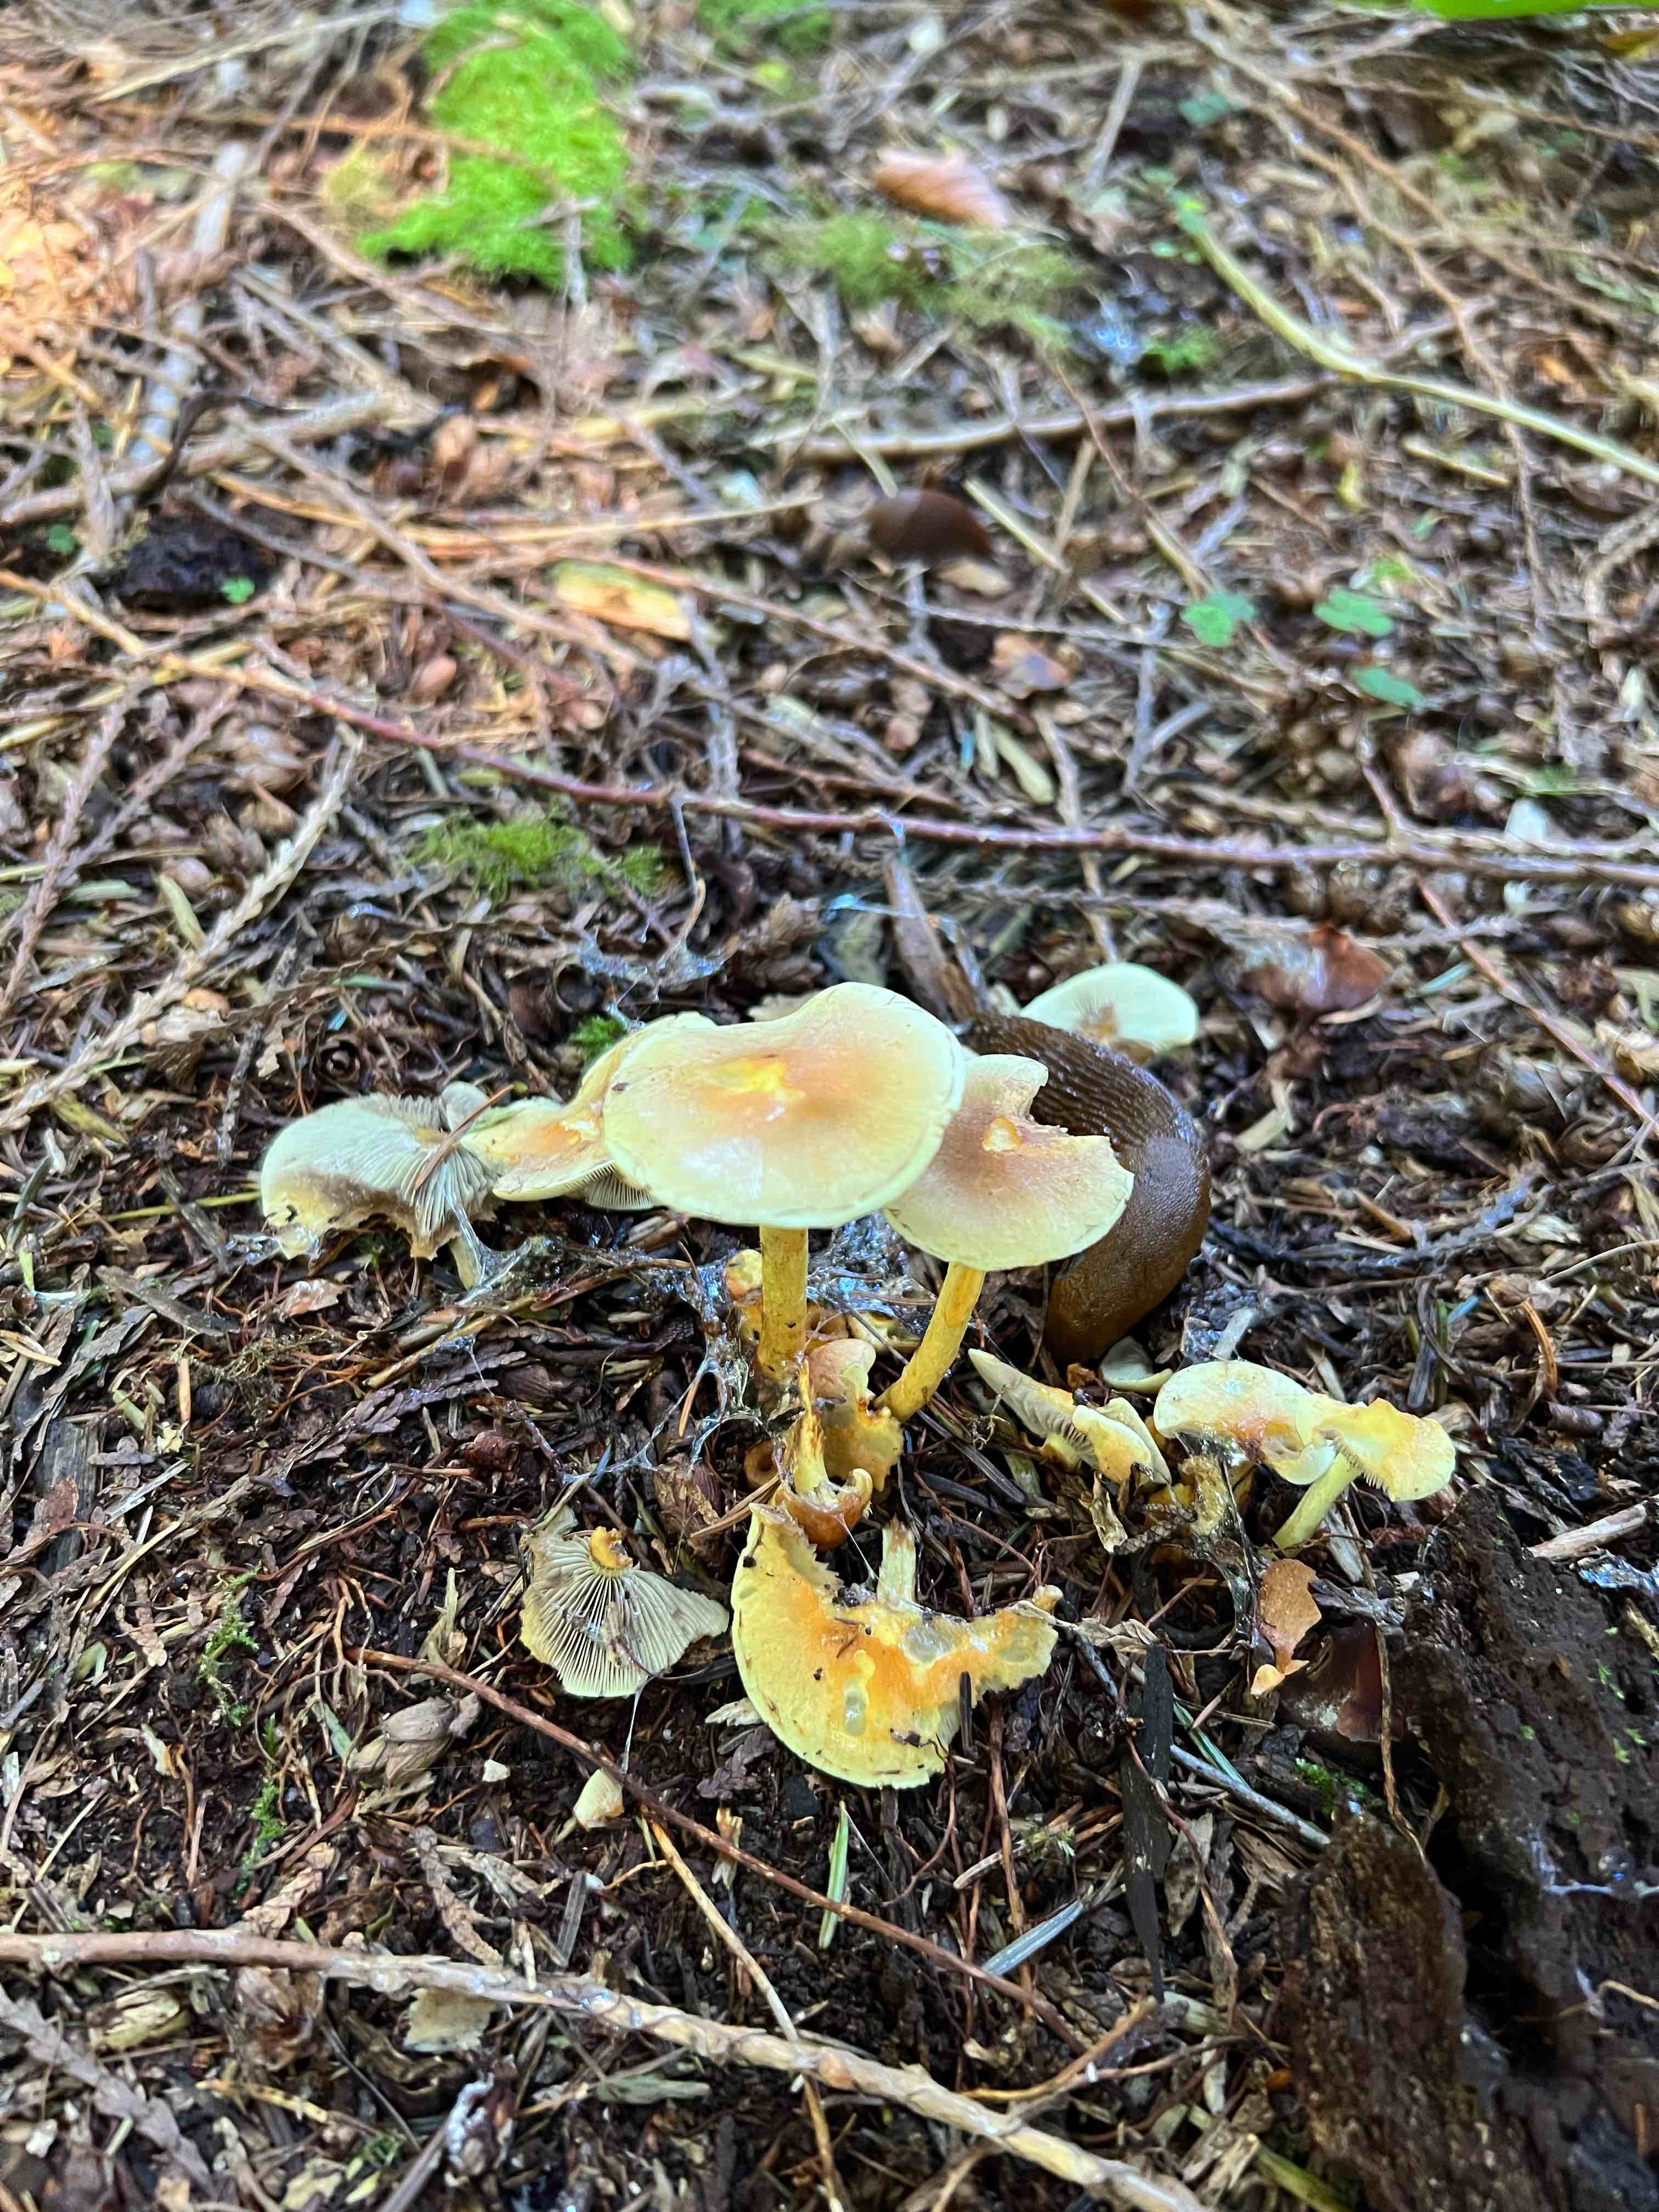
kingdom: Fungi
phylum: Basidiomycota
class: Agaricomycetes
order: Agaricales
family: Strophariaceae
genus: Hypholoma
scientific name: Hypholoma fasciculare
